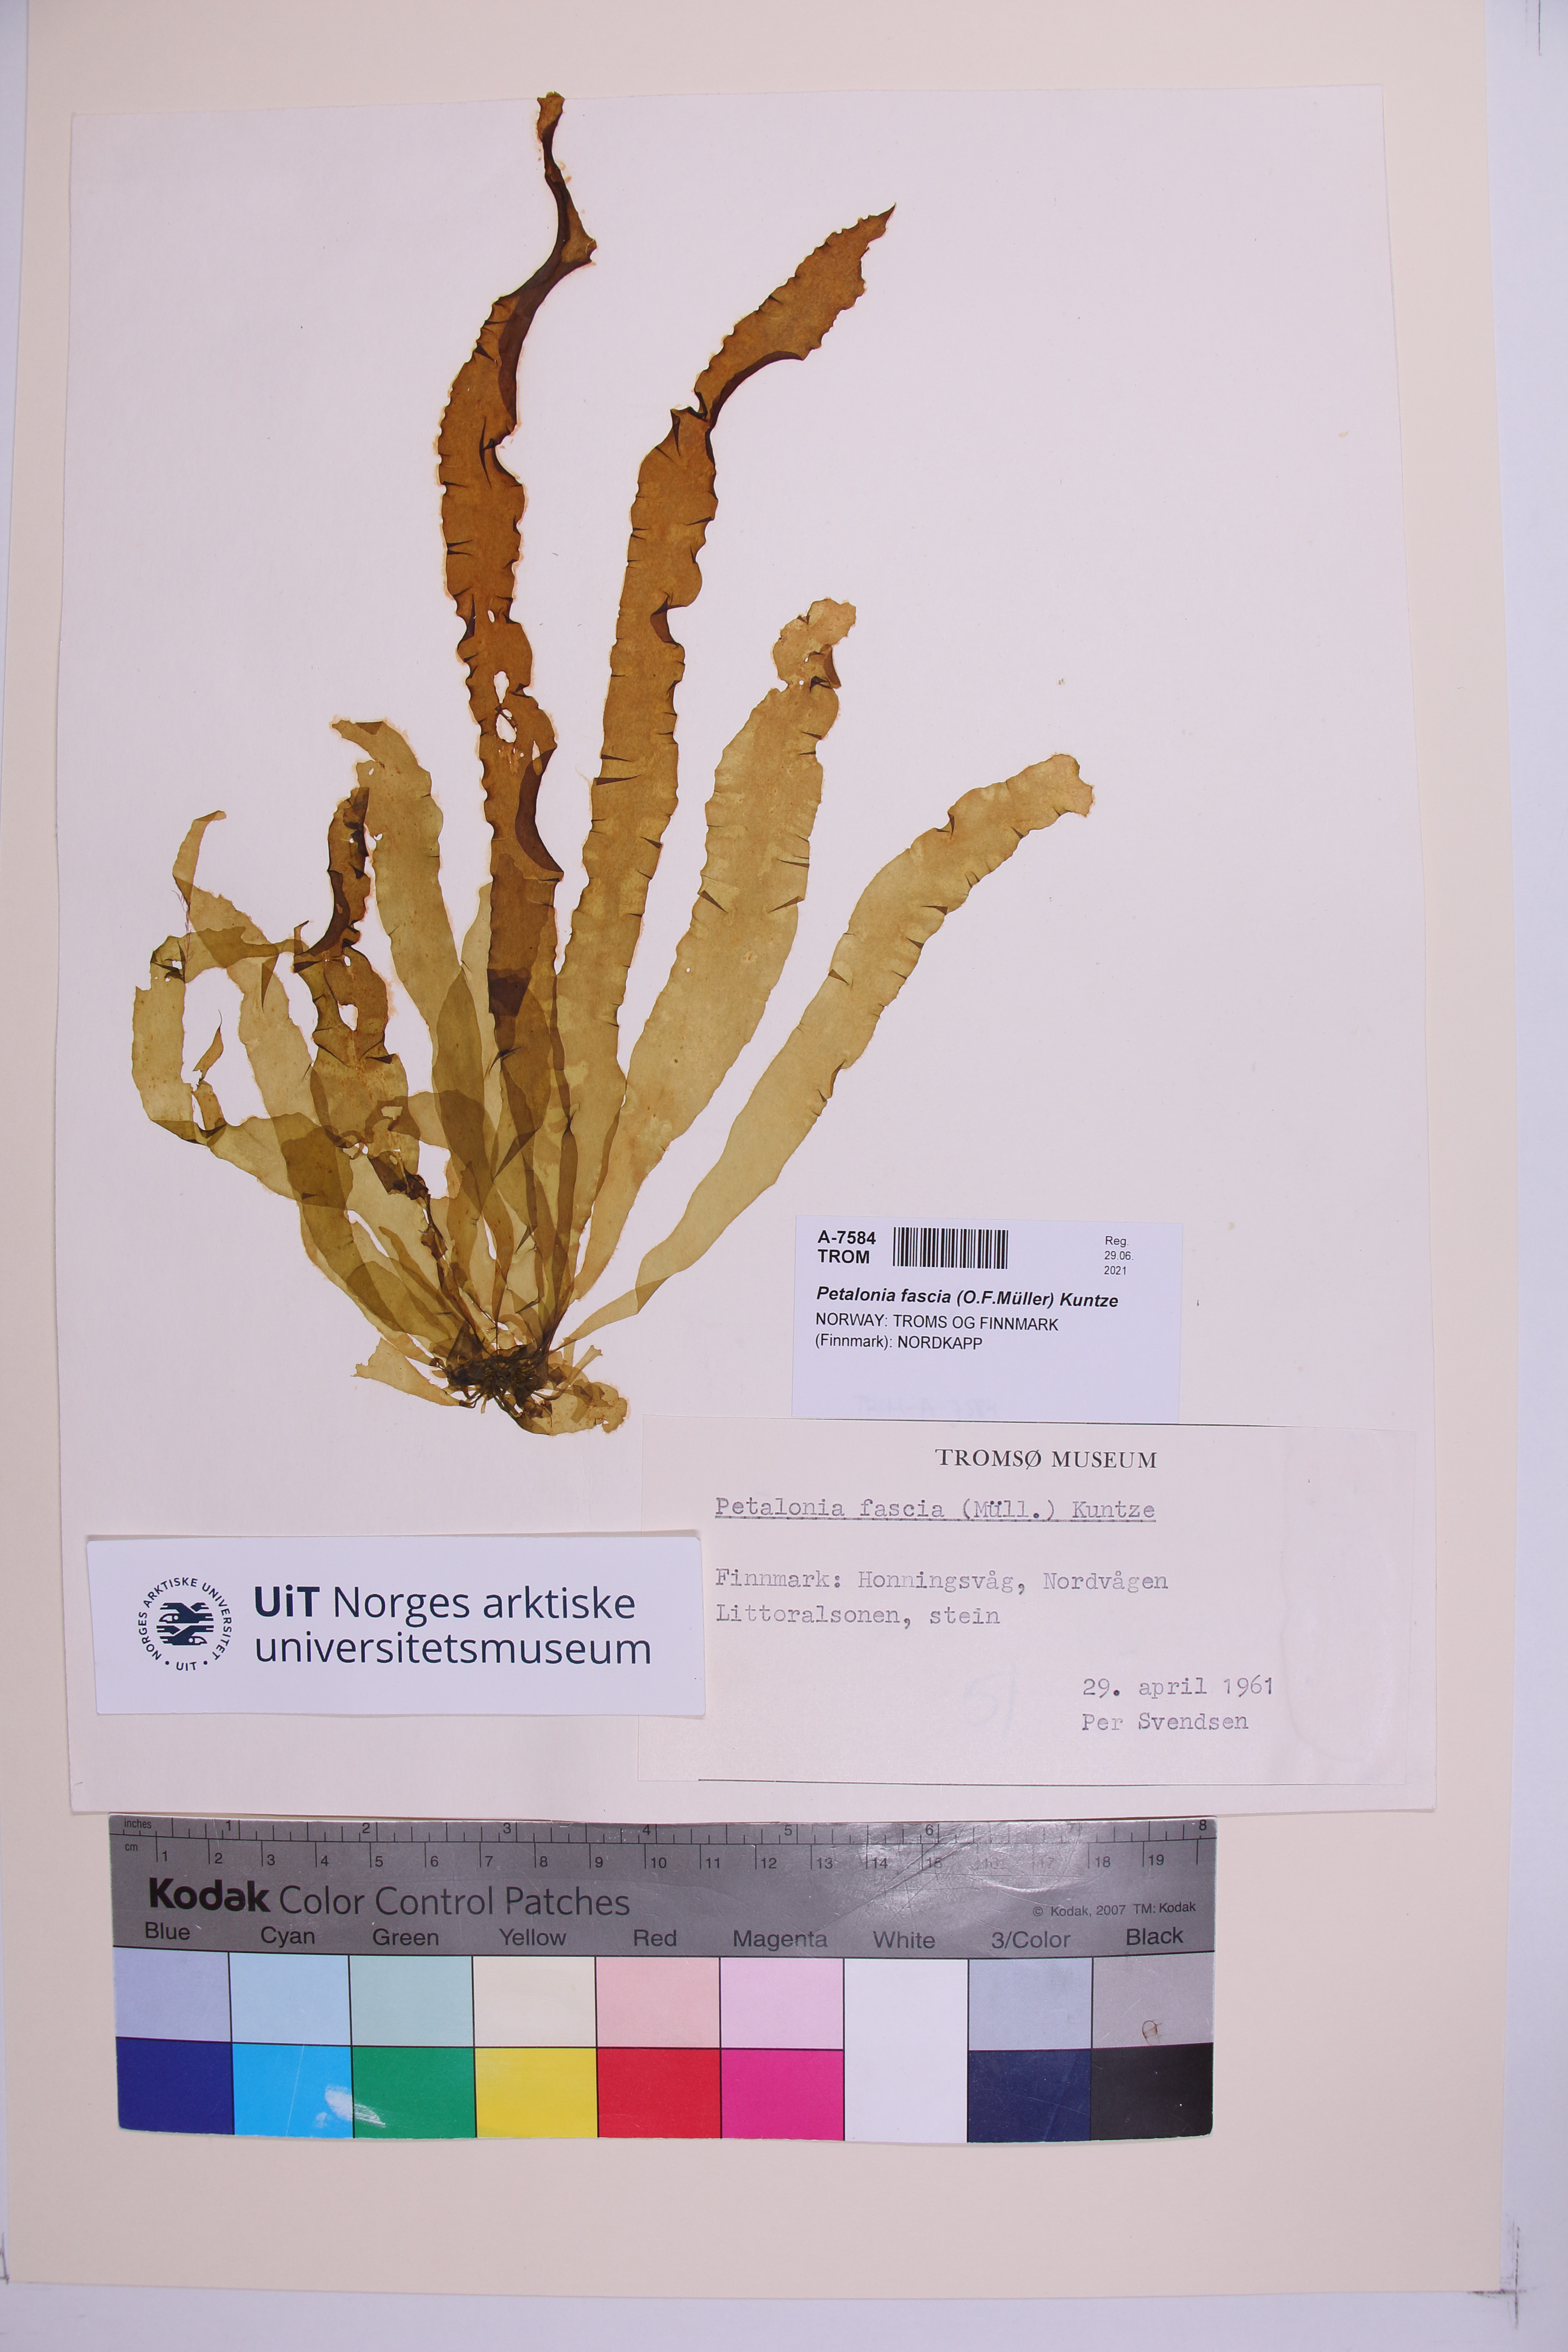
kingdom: Chromista
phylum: Ochrophyta
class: Phaeophyceae
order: Scytosiphonales
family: Scytosiphonaceae
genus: Petalonia
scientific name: Petalonia fascia
